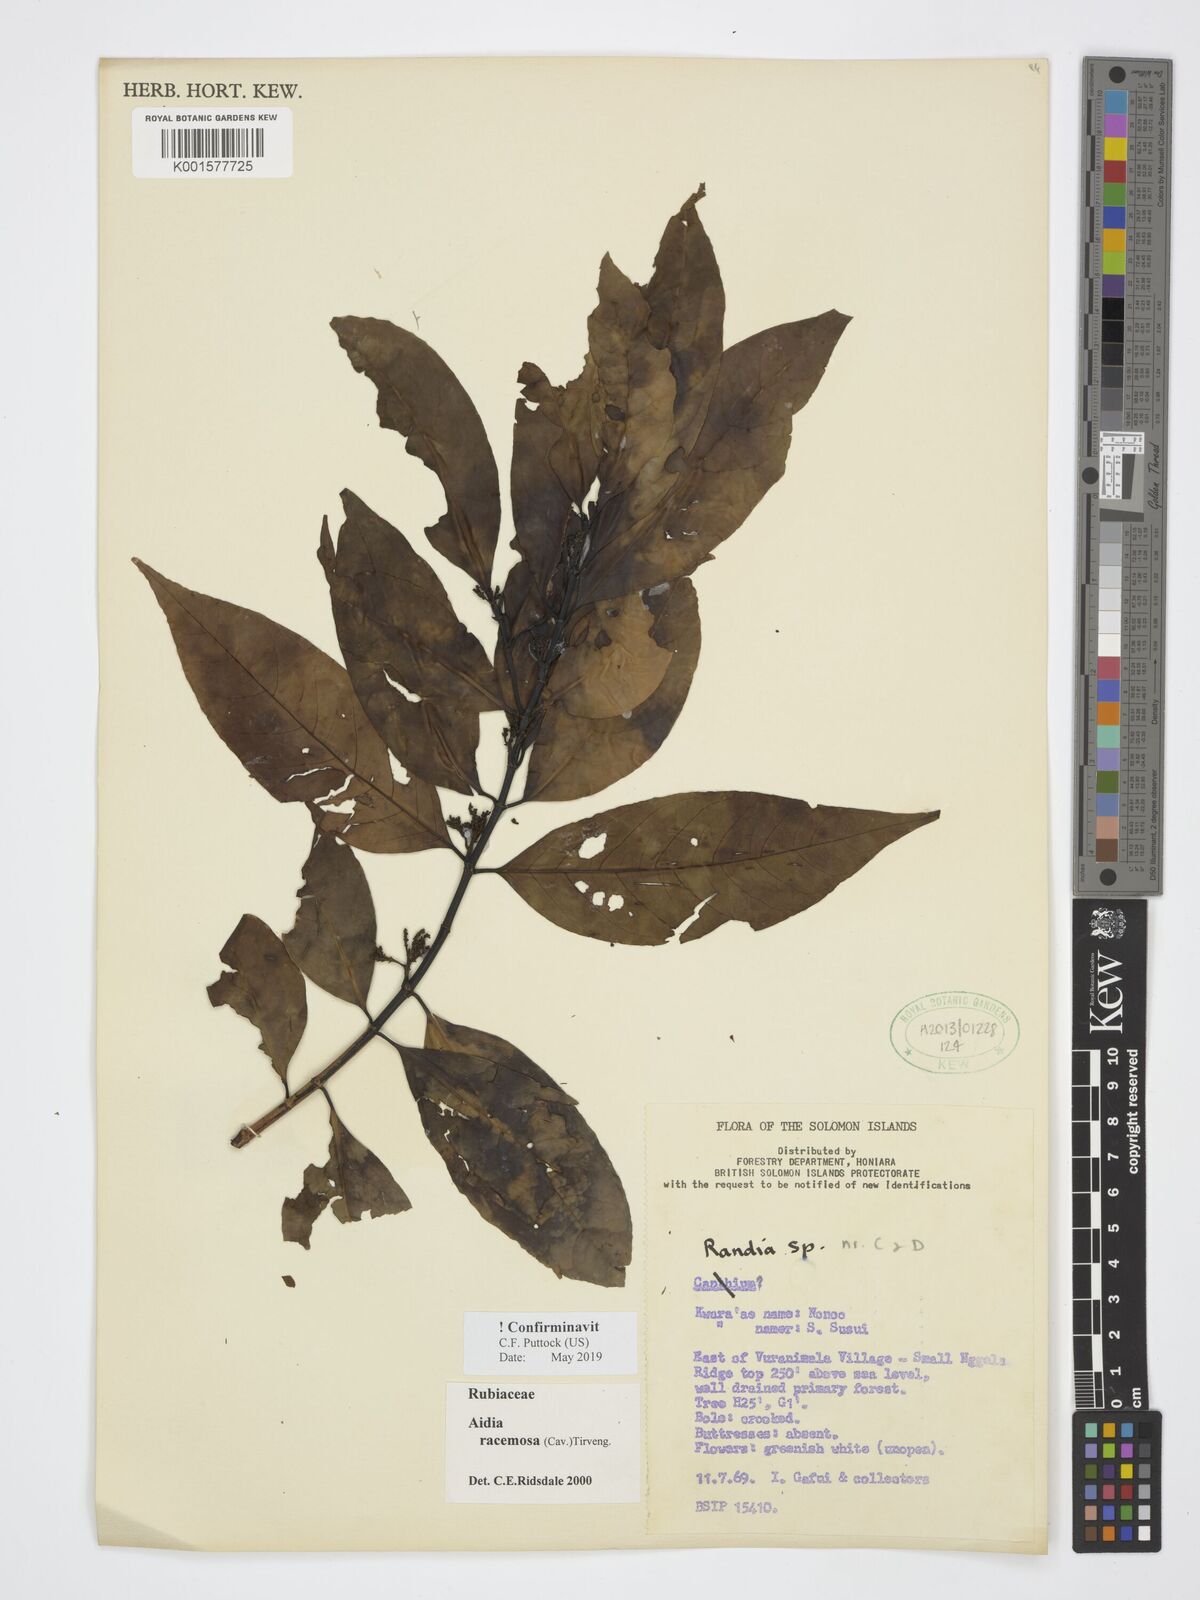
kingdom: Plantae
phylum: Tracheophyta
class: Magnoliopsida
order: Gentianales
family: Rubiaceae
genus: Aidia
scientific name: Aidia racemosa
